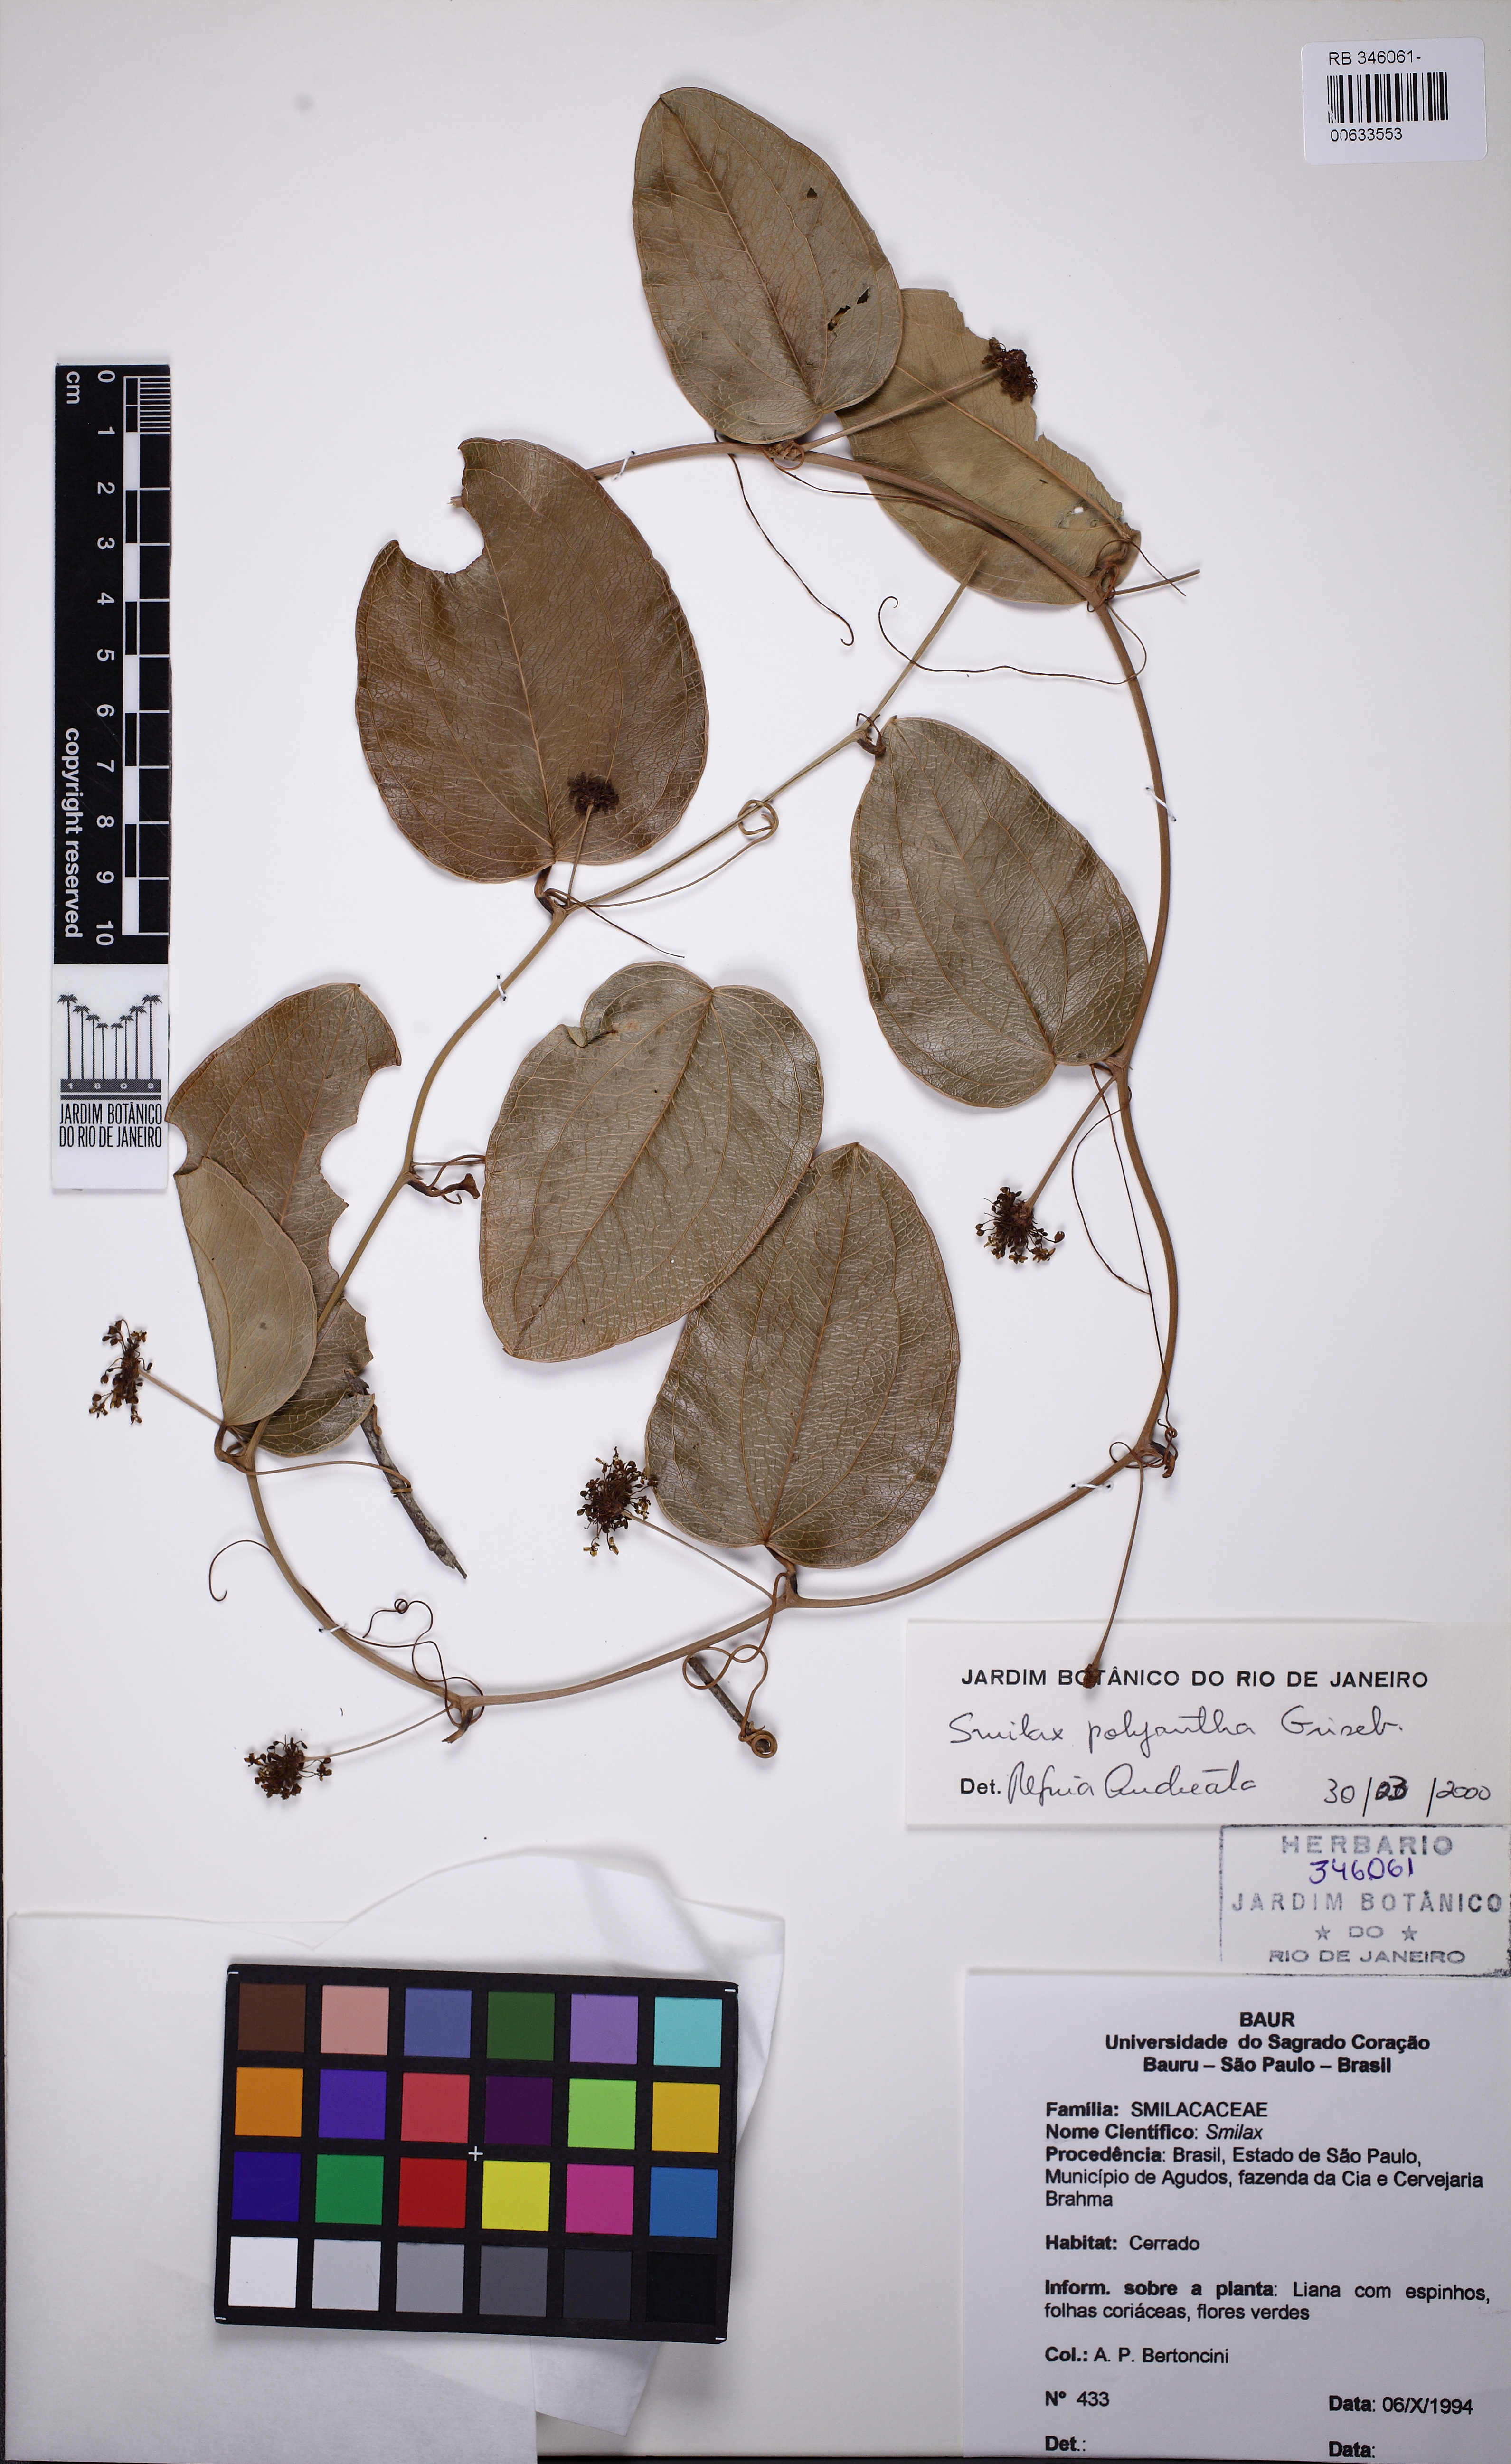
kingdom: Plantae
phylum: Tracheophyta
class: Liliopsida
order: Liliales
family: Smilacaceae
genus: Smilax
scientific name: Smilax polyantha
